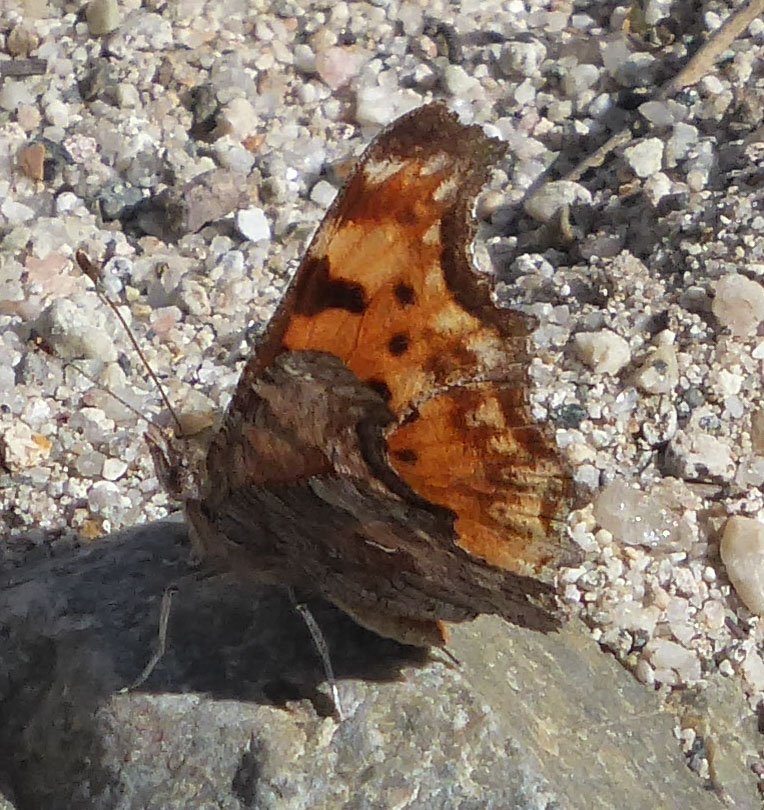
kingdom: Animalia
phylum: Arthropoda
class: Insecta
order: Lepidoptera
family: Nymphalidae
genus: Polygonia
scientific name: Polygonia gracilis
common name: Hoary Comma
